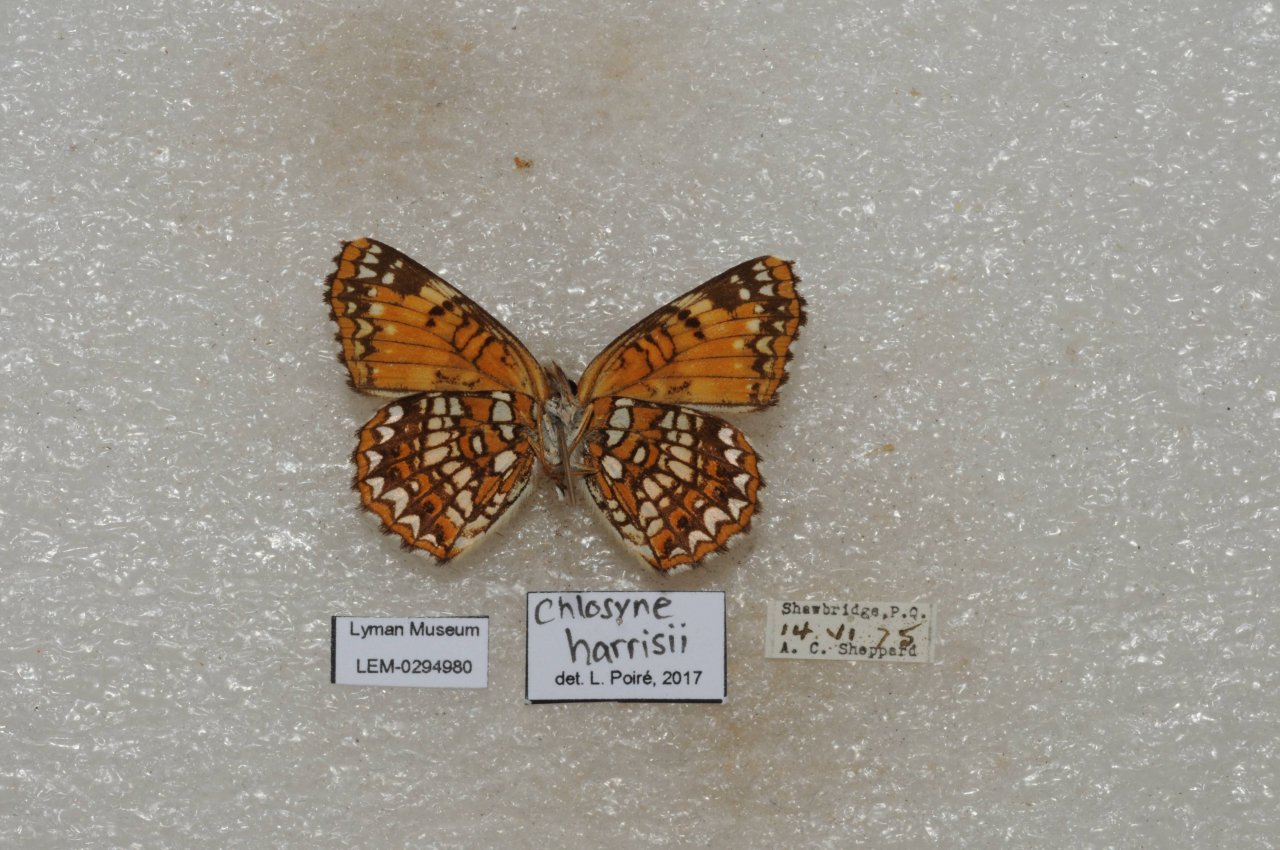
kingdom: Animalia
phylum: Arthropoda
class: Insecta
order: Lepidoptera
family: Nymphalidae
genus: Chlosyne
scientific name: Chlosyne harrisii
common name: Harris's Checkerspot
